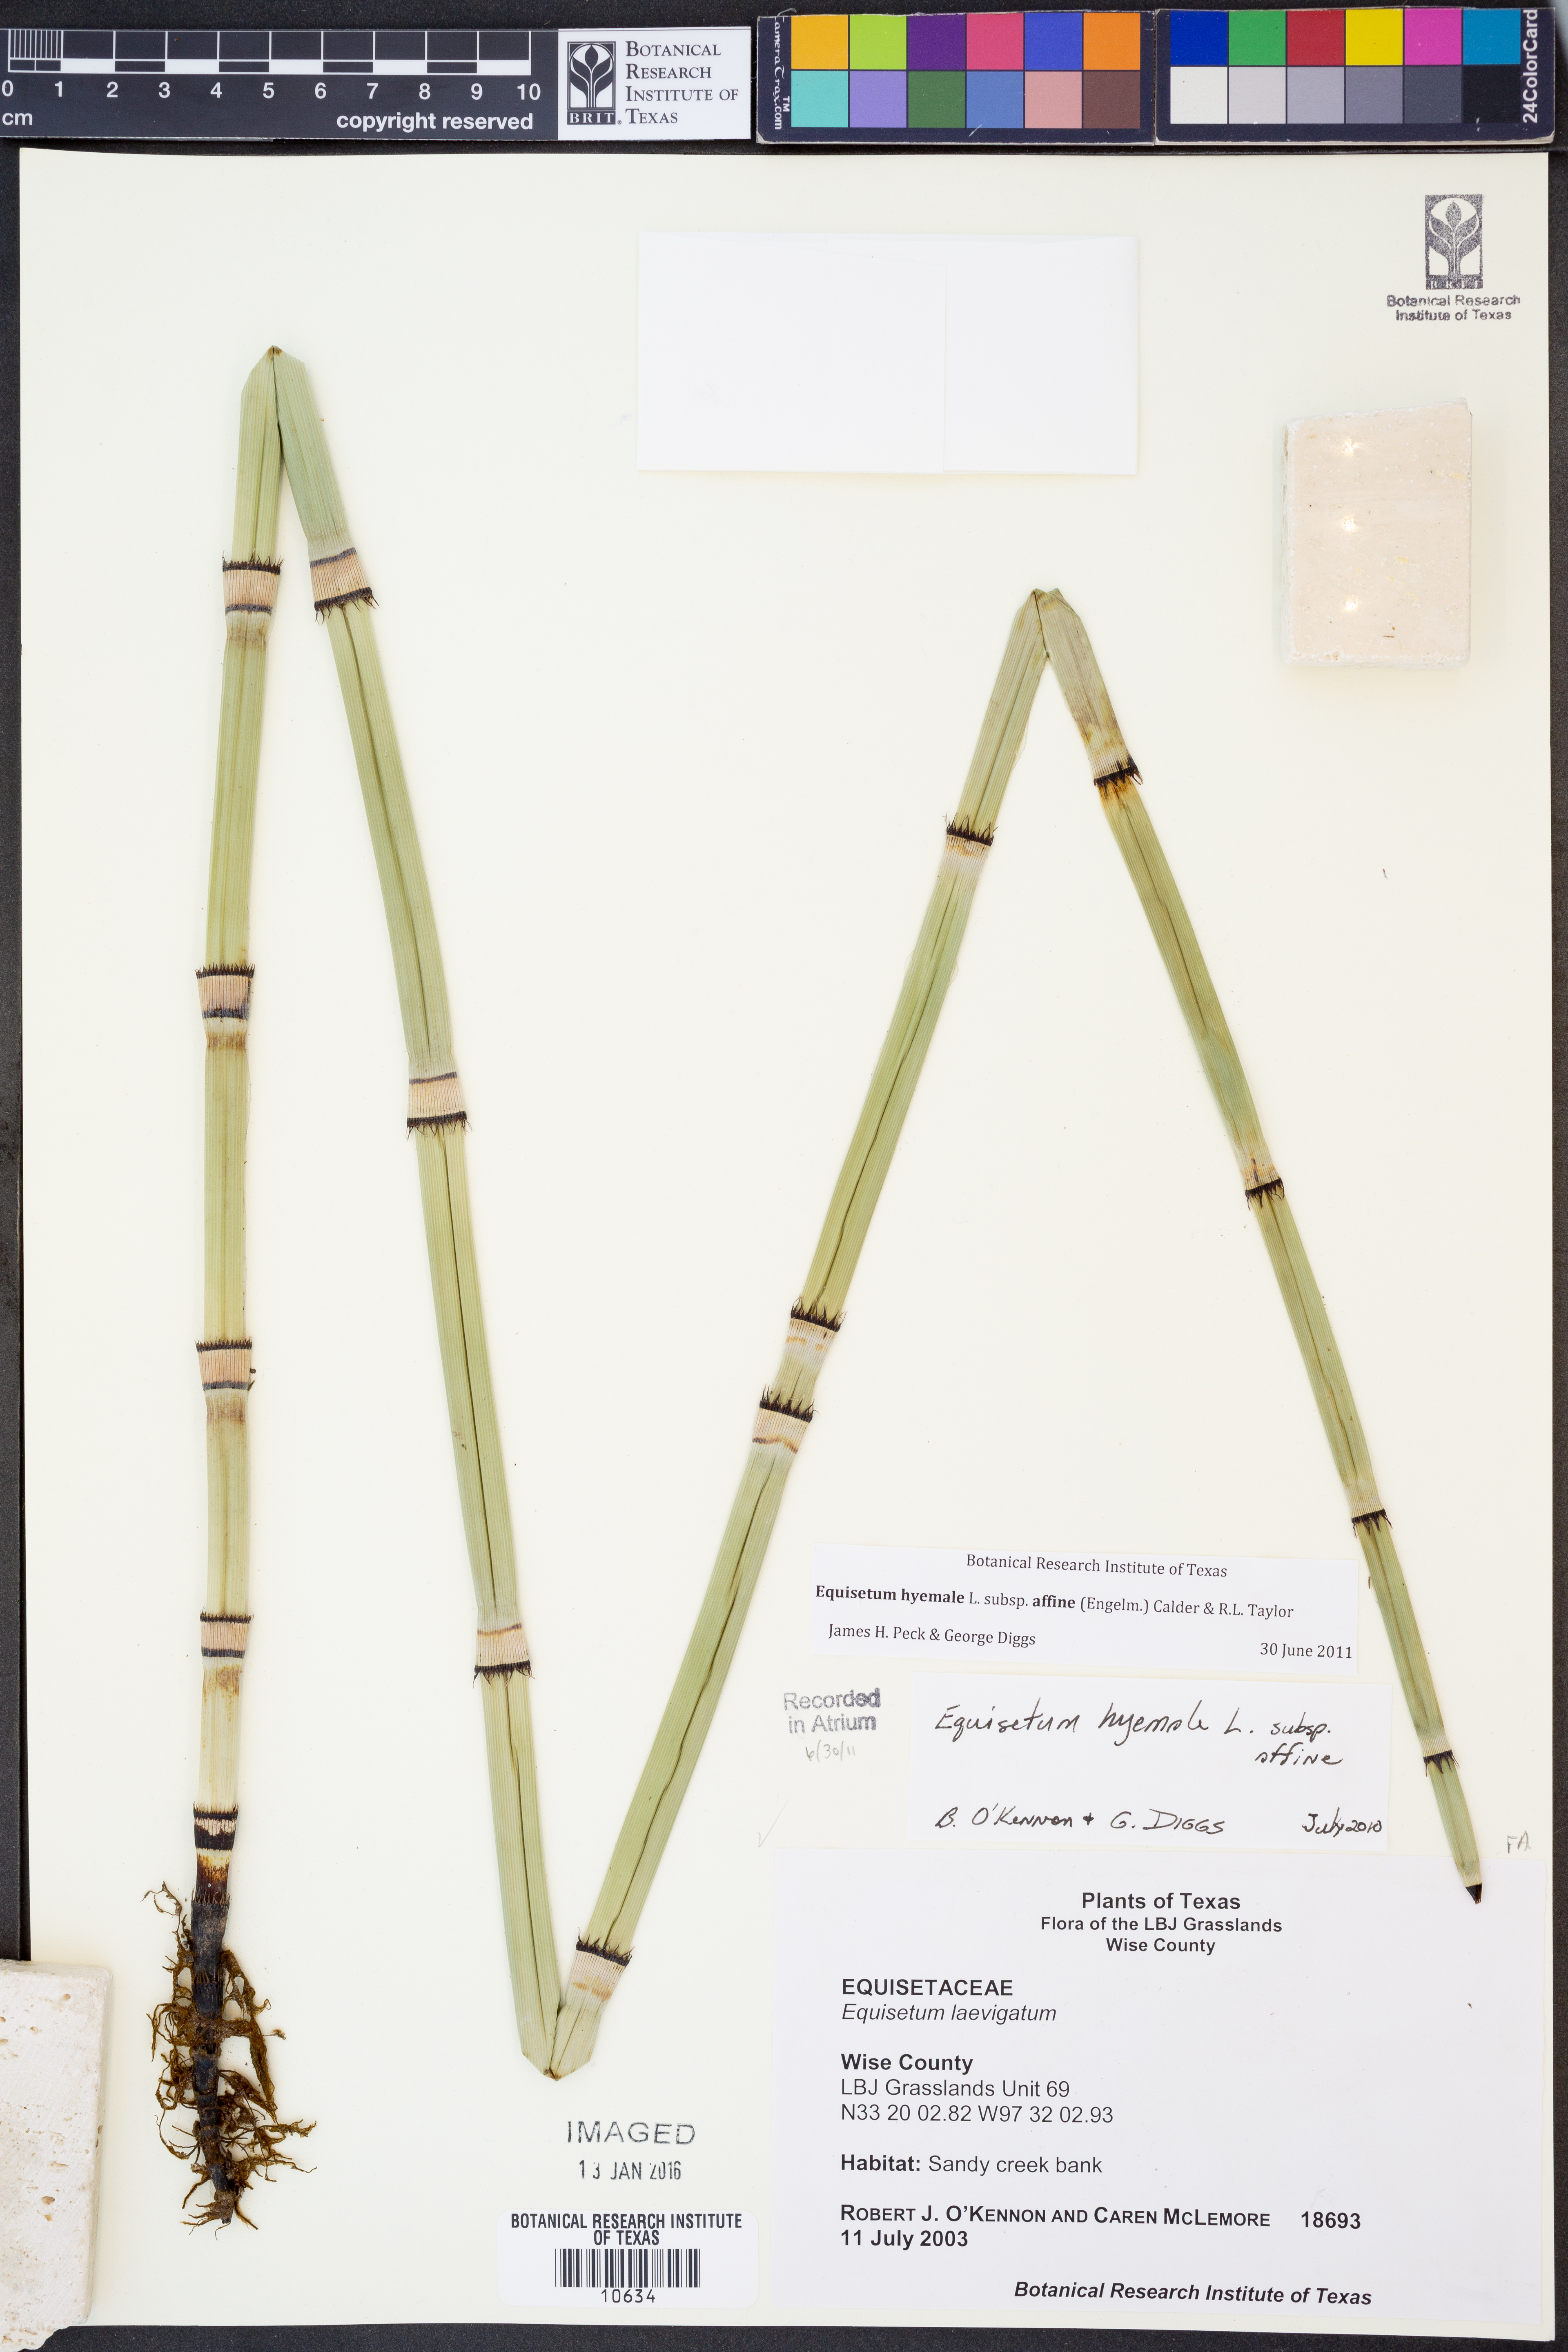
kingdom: Plantae
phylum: Tracheophyta
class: Polypodiopsida
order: Equisetales
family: Equisetaceae
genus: Equisetum
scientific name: Equisetum praealtum
